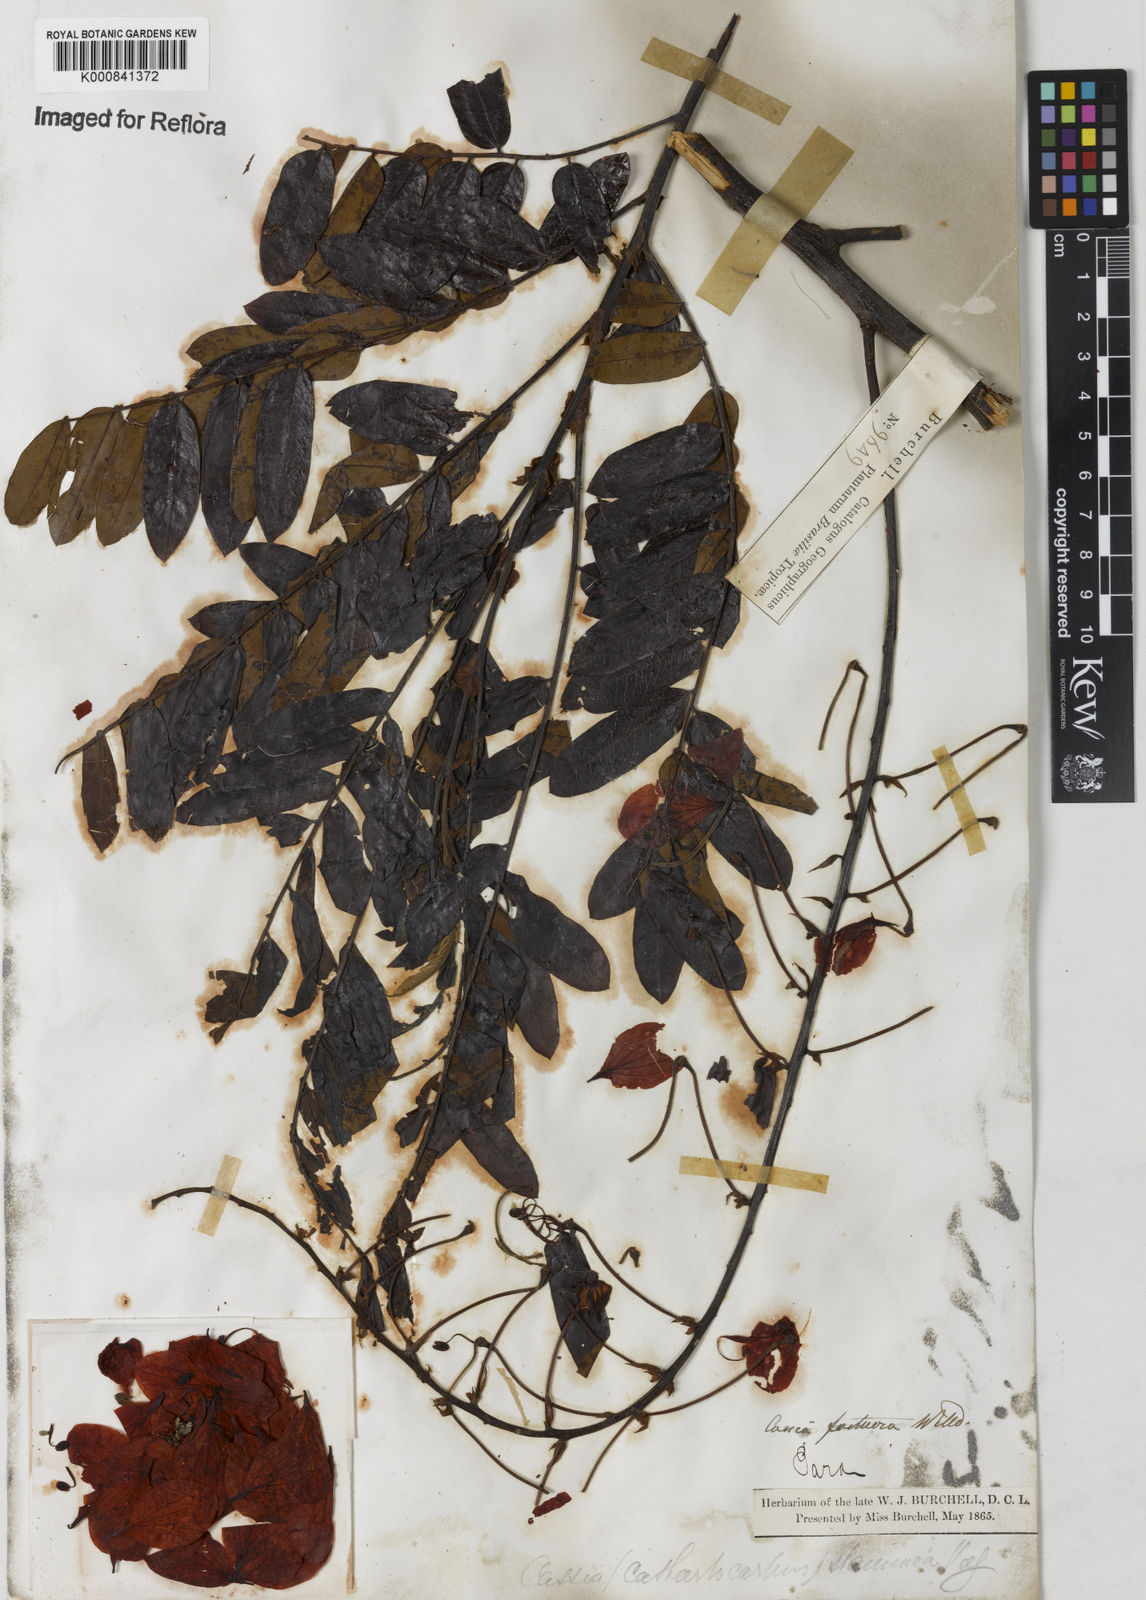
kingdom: Plantae
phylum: Tracheophyta
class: Magnoliopsida
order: Fabales
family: Fabaceae
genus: Cassia
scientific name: Cassia
